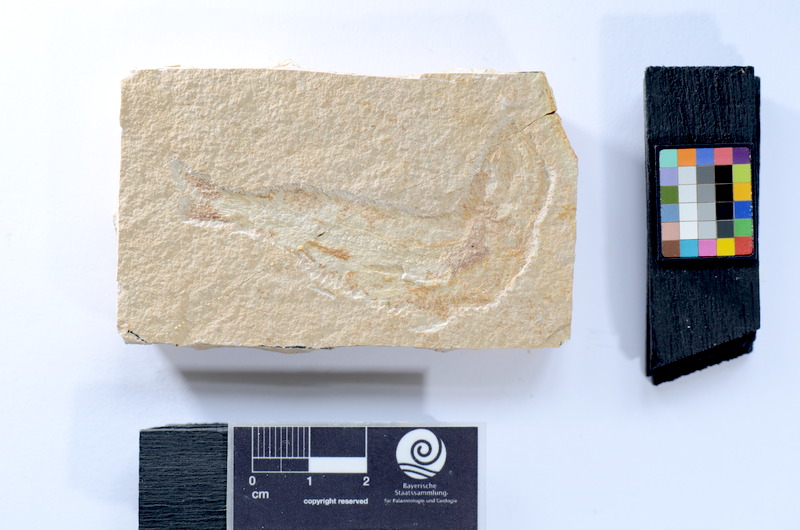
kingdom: Animalia
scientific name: Animalia
